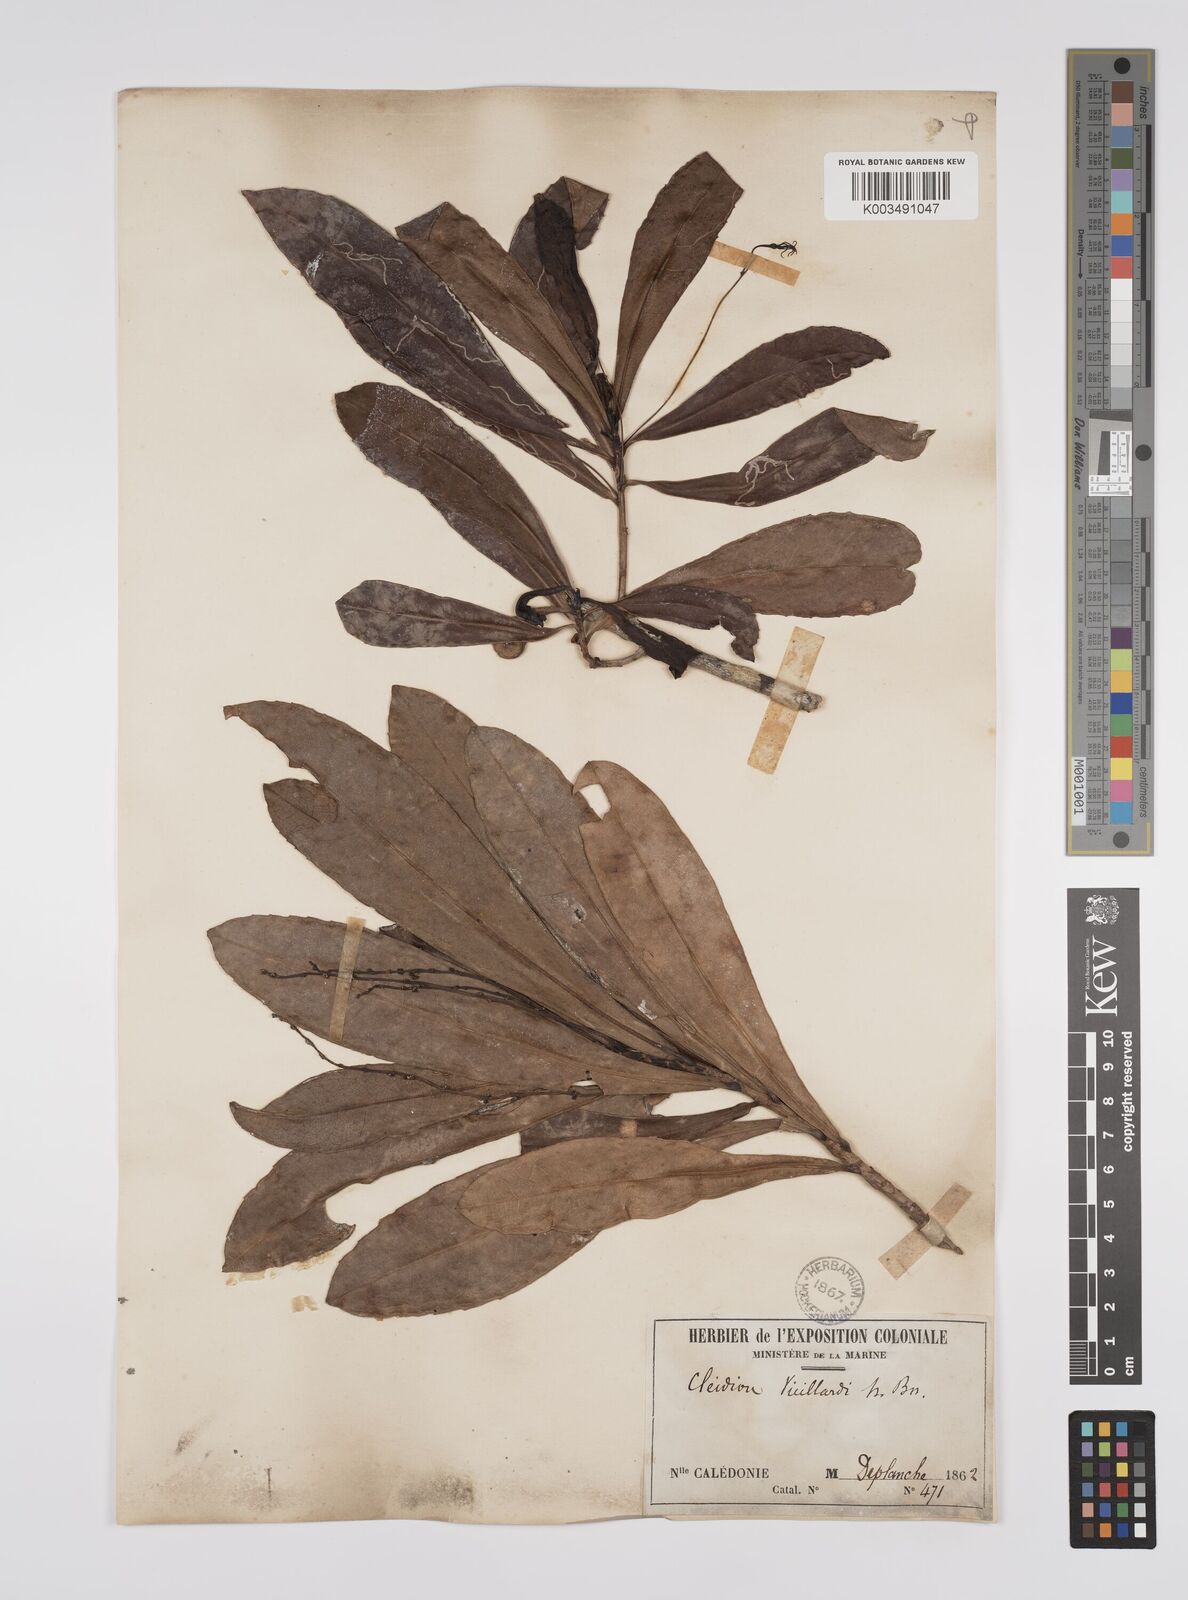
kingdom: Plantae
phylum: Tracheophyta
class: Magnoliopsida
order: Malpighiales
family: Euphorbiaceae
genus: Cleidion
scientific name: Cleidion vieillardii
